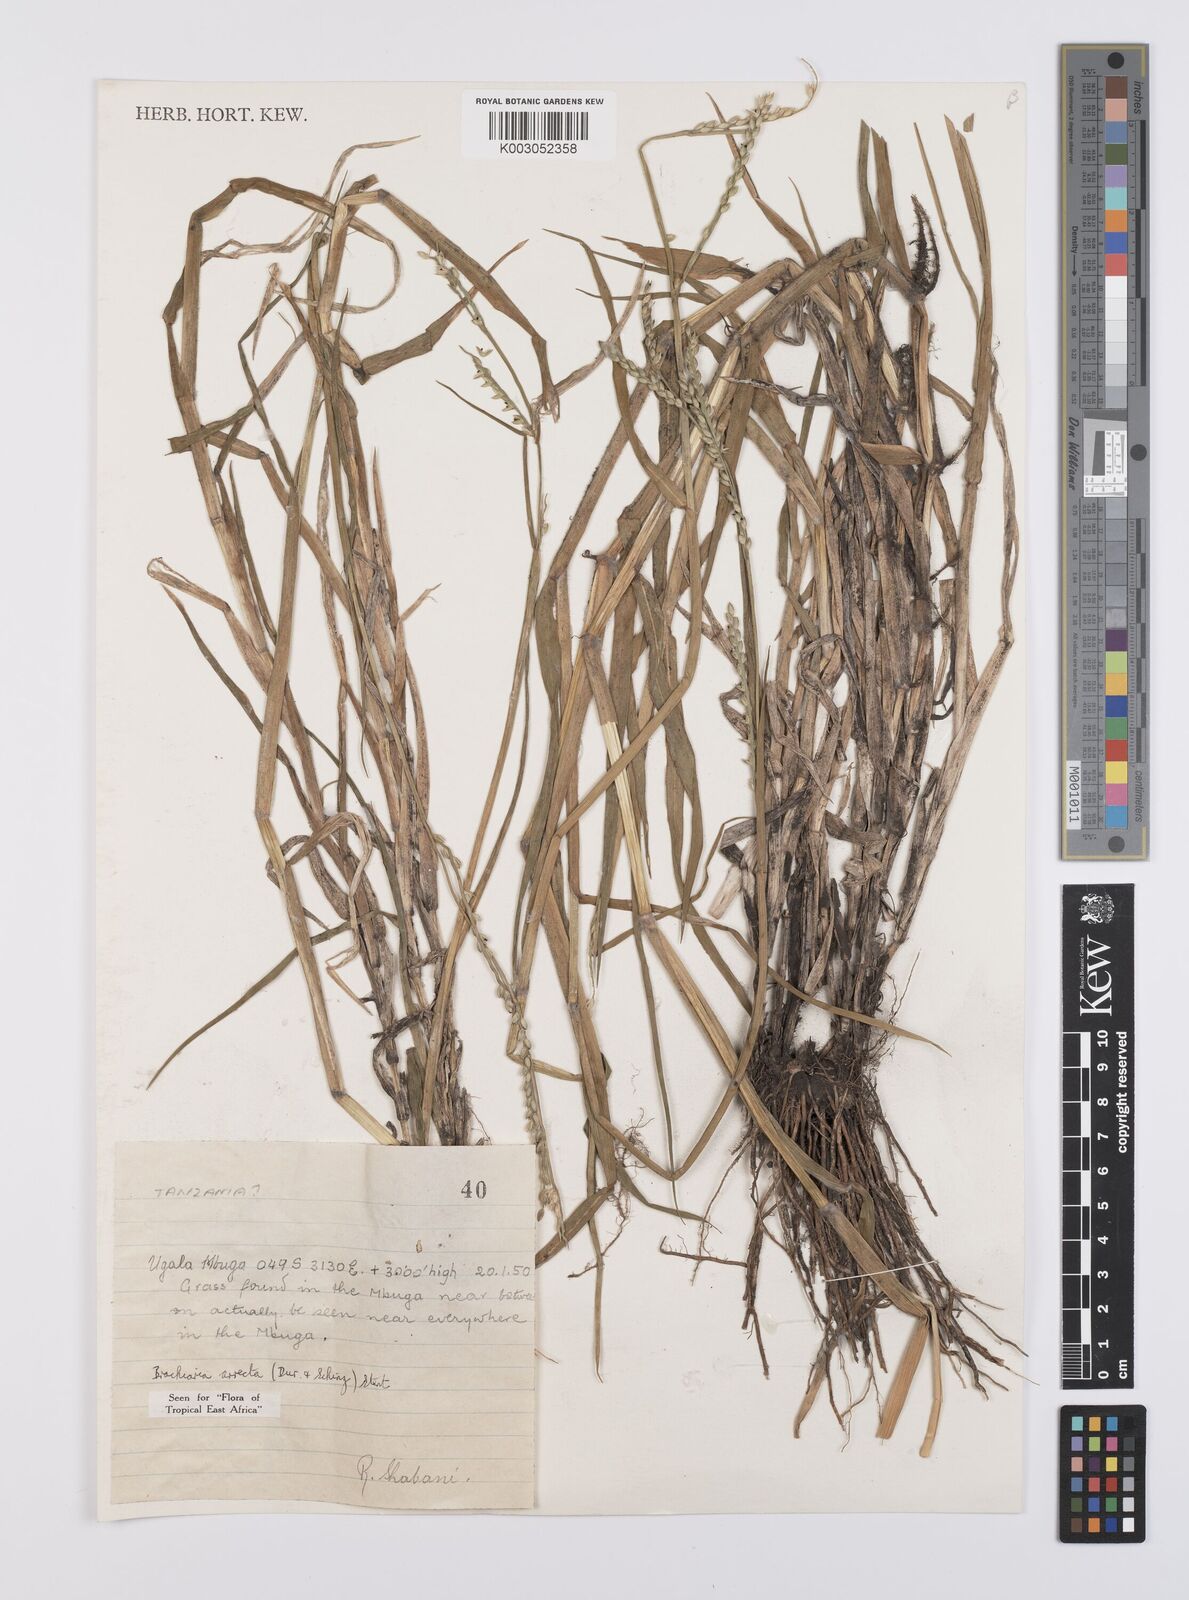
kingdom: Plantae
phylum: Tracheophyta
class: Liliopsida
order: Poales
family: Poaceae
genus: Urochloa
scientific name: Urochloa arrecta
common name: African signalgrass
